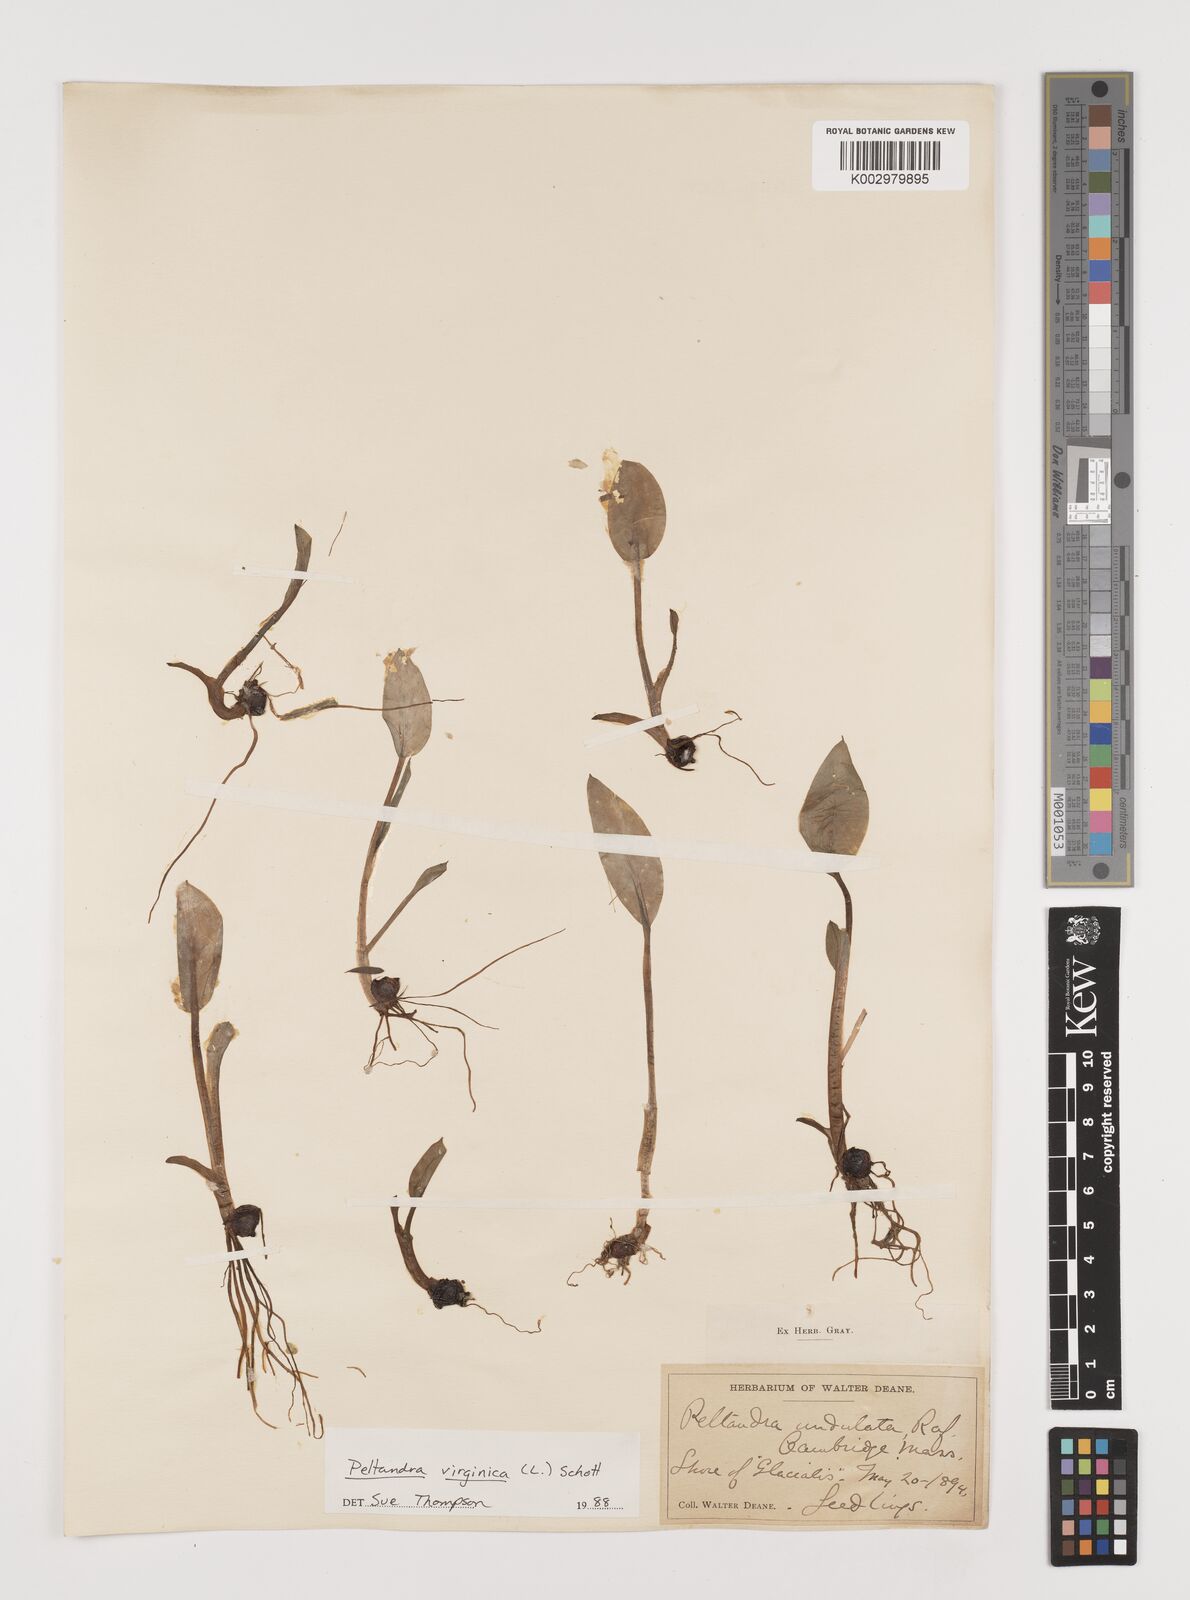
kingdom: Plantae
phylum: Tracheophyta
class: Liliopsida
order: Alismatales
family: Araceae
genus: Peltandra
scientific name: Peltandra virginica
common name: Arrow arum
